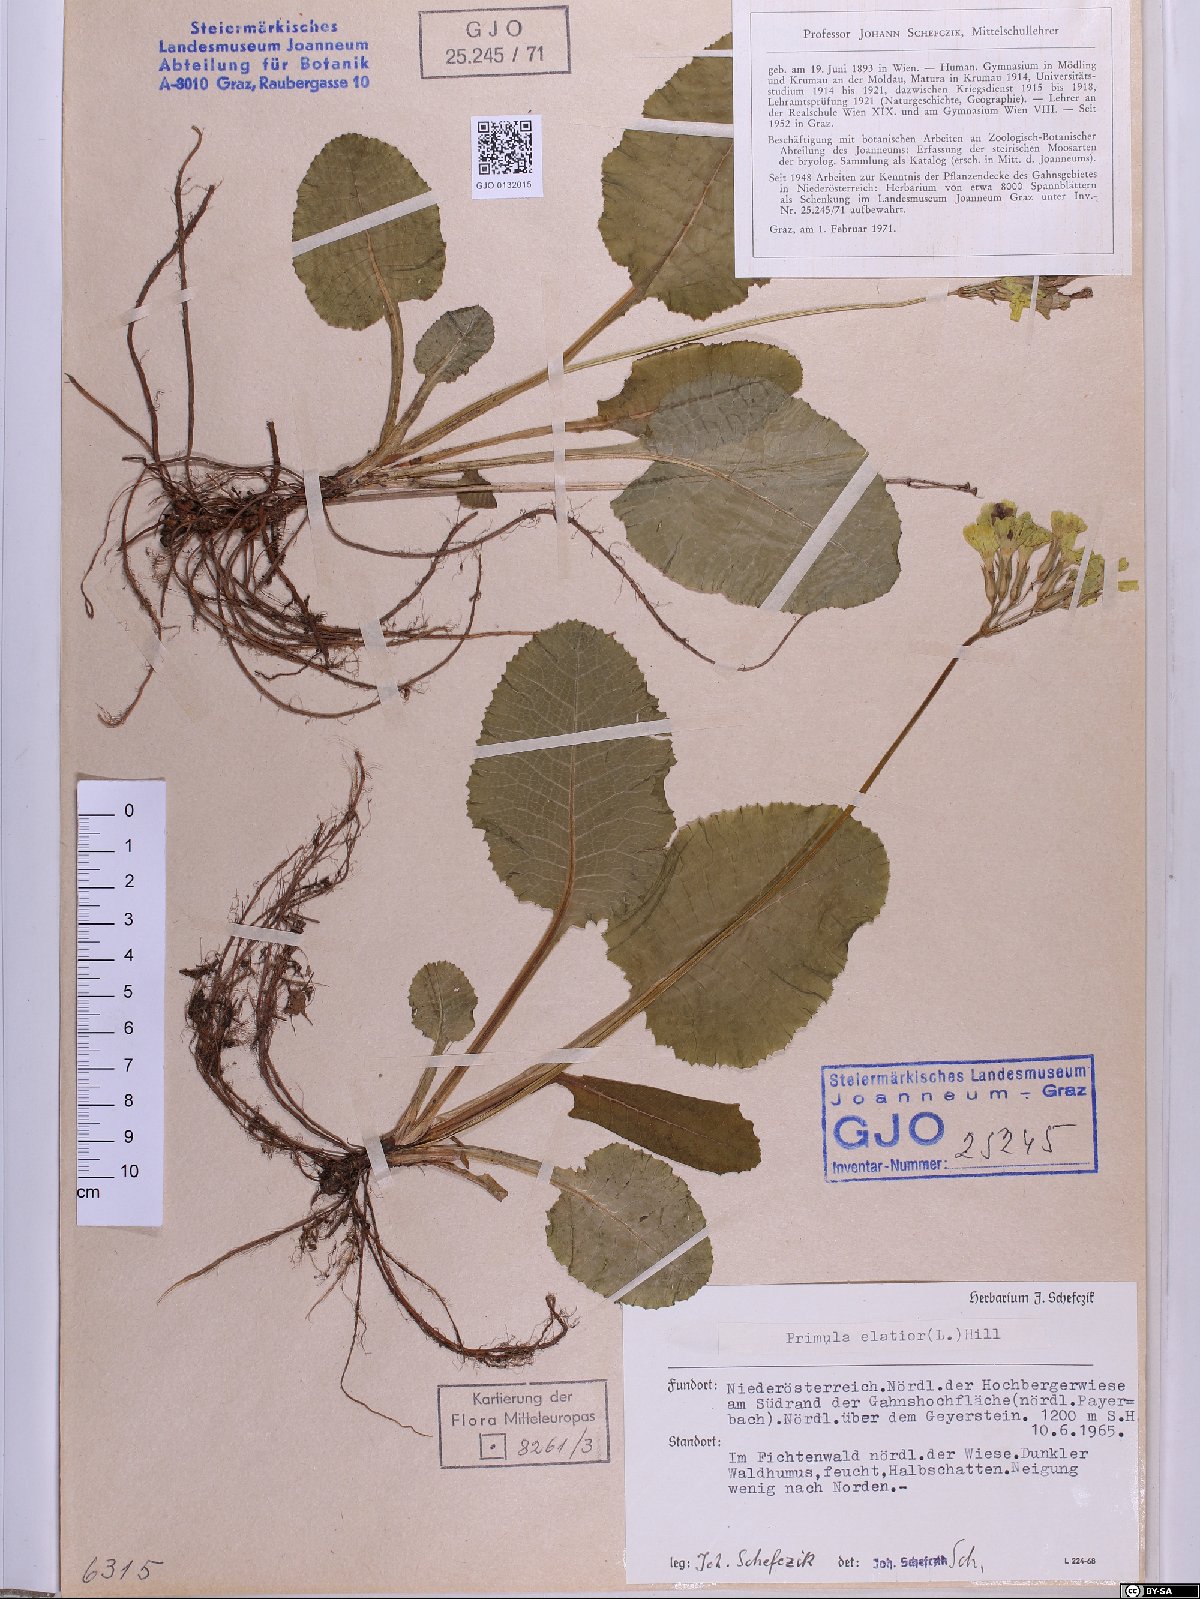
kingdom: Plantae
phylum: Tracheophyta
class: Magnoliopsida
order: Ericales
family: Primulaceae
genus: Primula
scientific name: Primula elatior
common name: Oxlip
